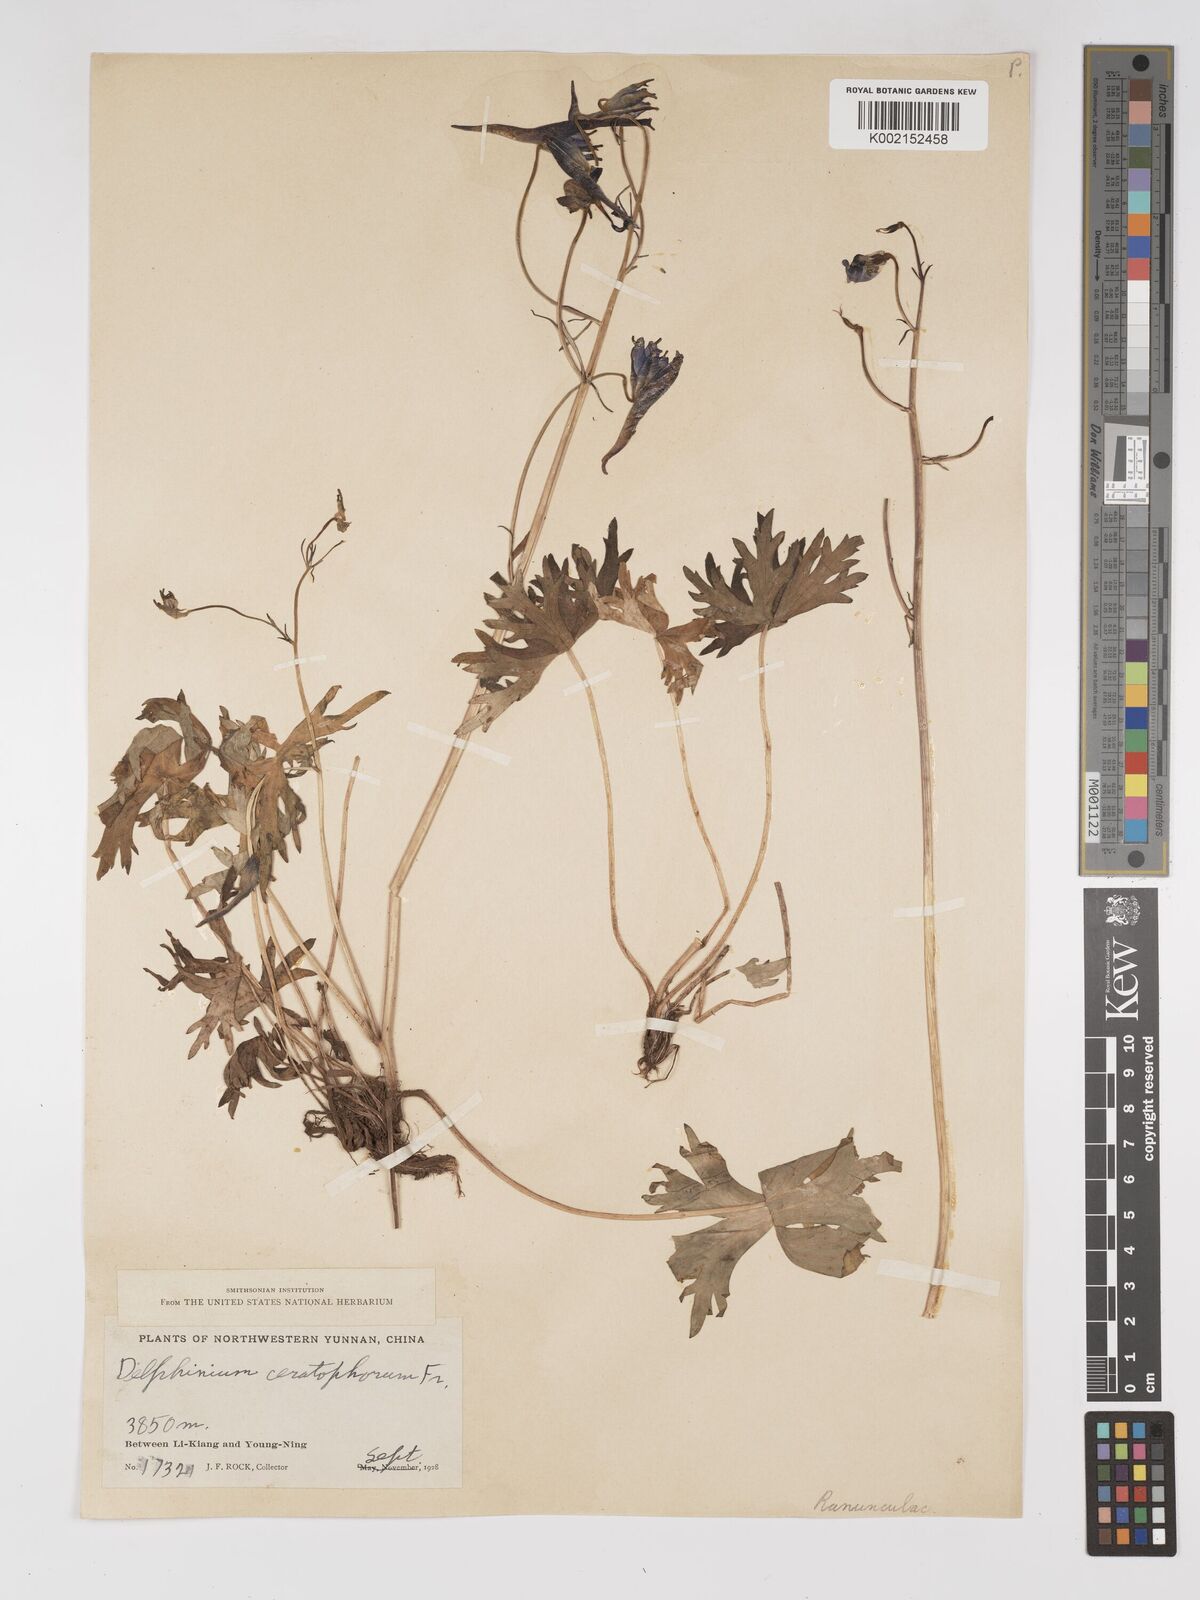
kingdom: Plantae
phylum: Tracheophyta
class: Magnoliopsida
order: Ranunculales
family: Ranunculaceae
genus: Delphinium
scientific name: Delphinium ceratophorum
